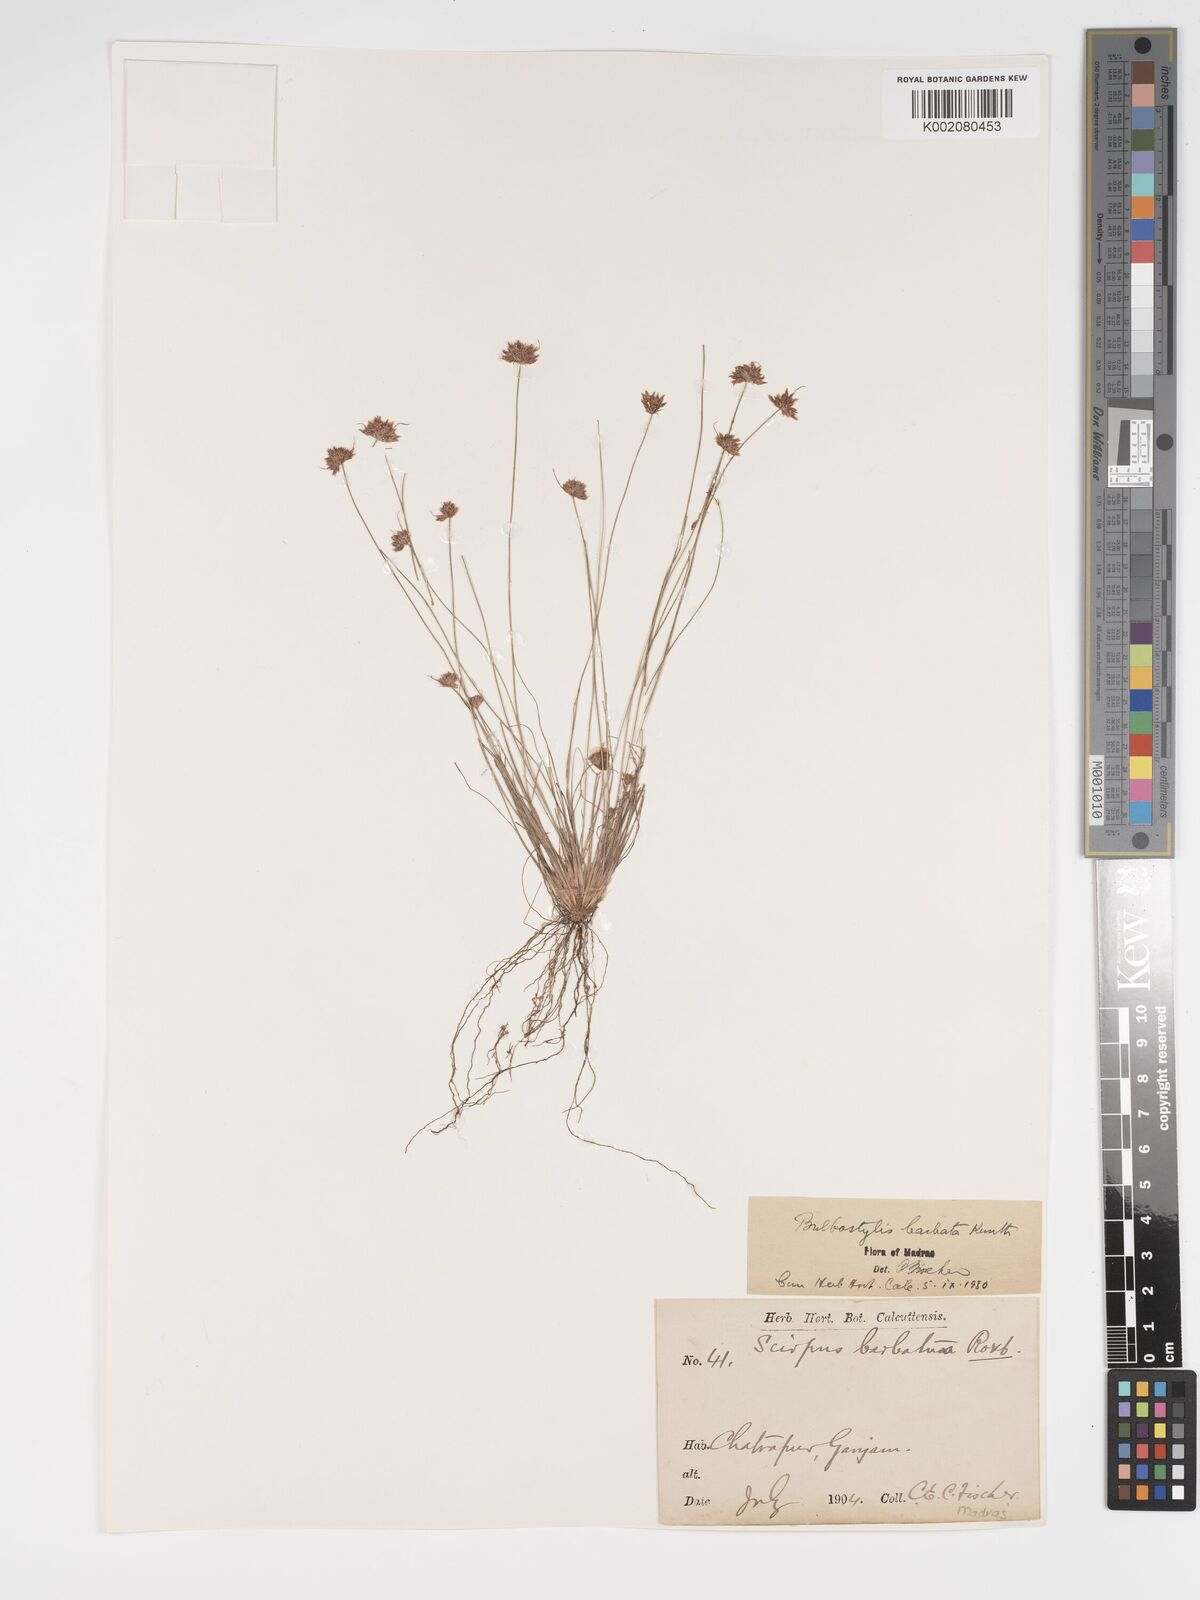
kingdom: Plantae
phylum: Tracheophyta
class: Liliopsida
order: Poales
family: Cyperaceae
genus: Bulbostylis
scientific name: Bulbostylis barbata
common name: Watergrass
